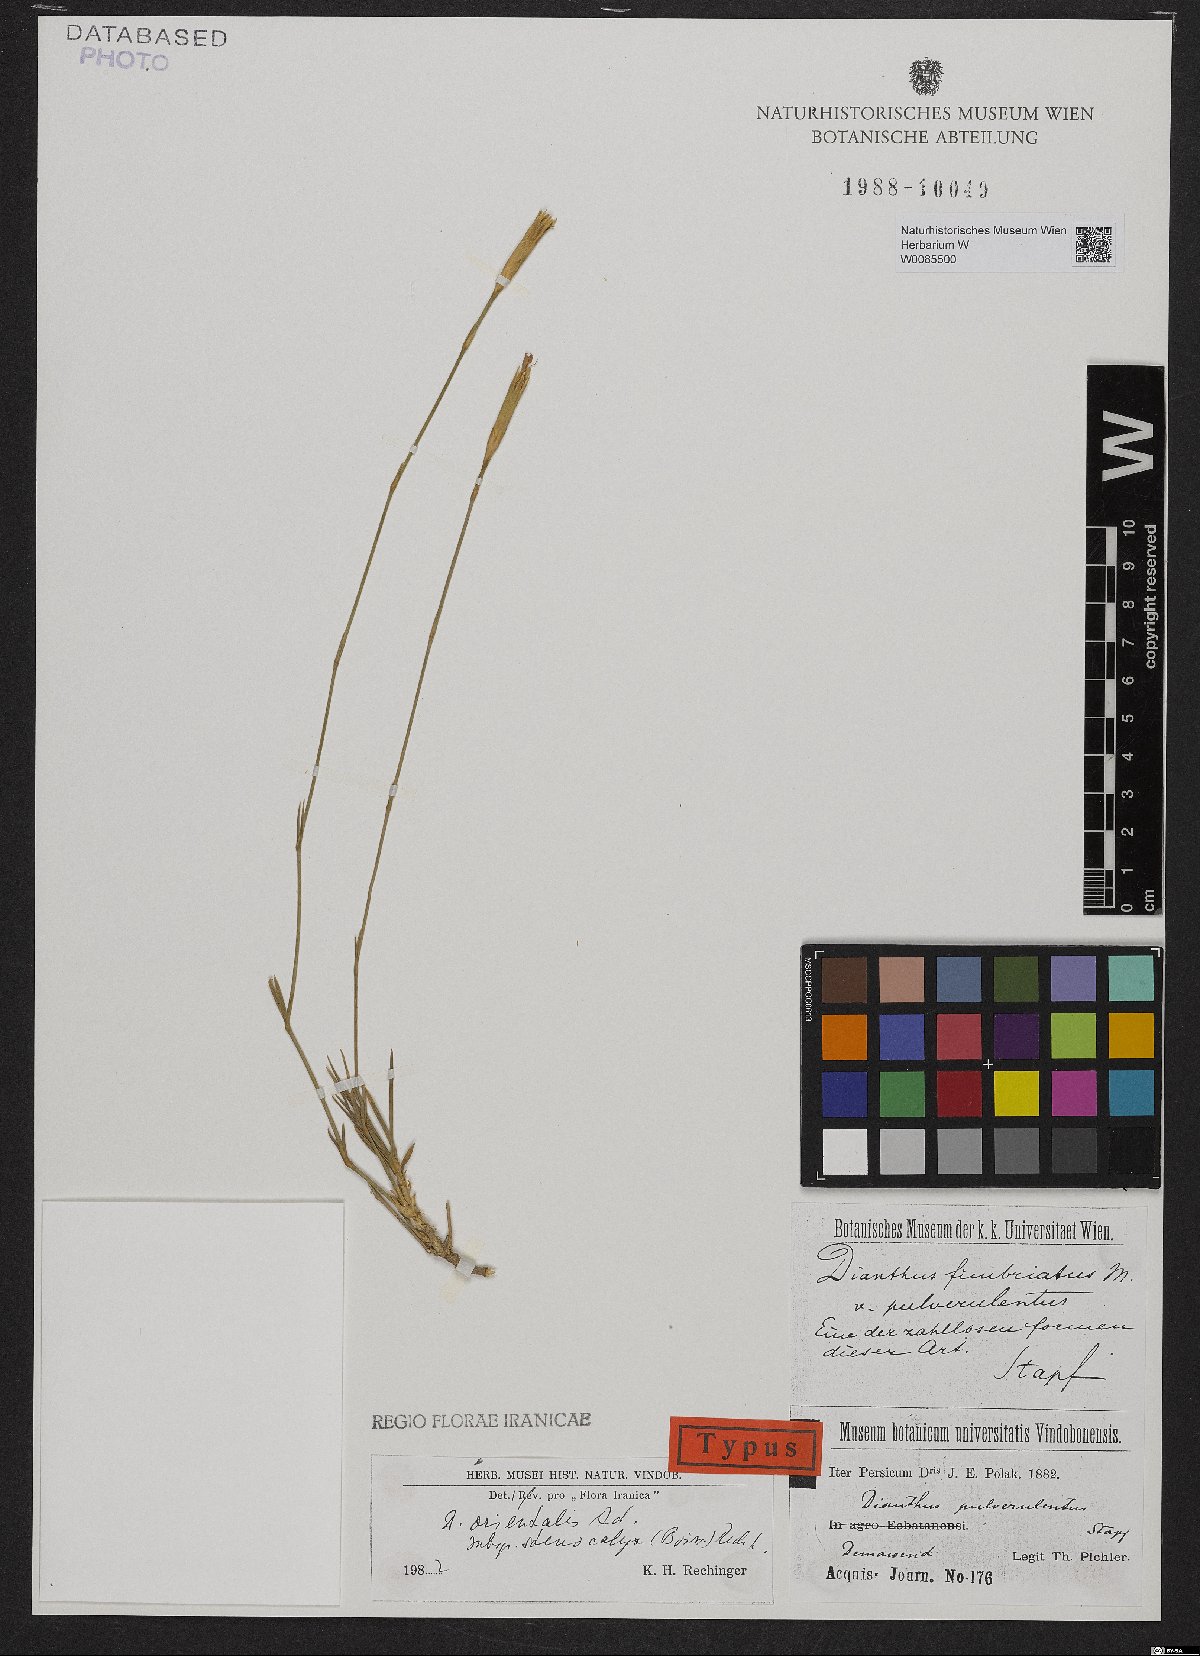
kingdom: Plantae
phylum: Tracheophyta
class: Magnoliopsida
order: Caryophyllales
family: Caryophyllaceae
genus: Dianthus
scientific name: Dianthus orientalis
